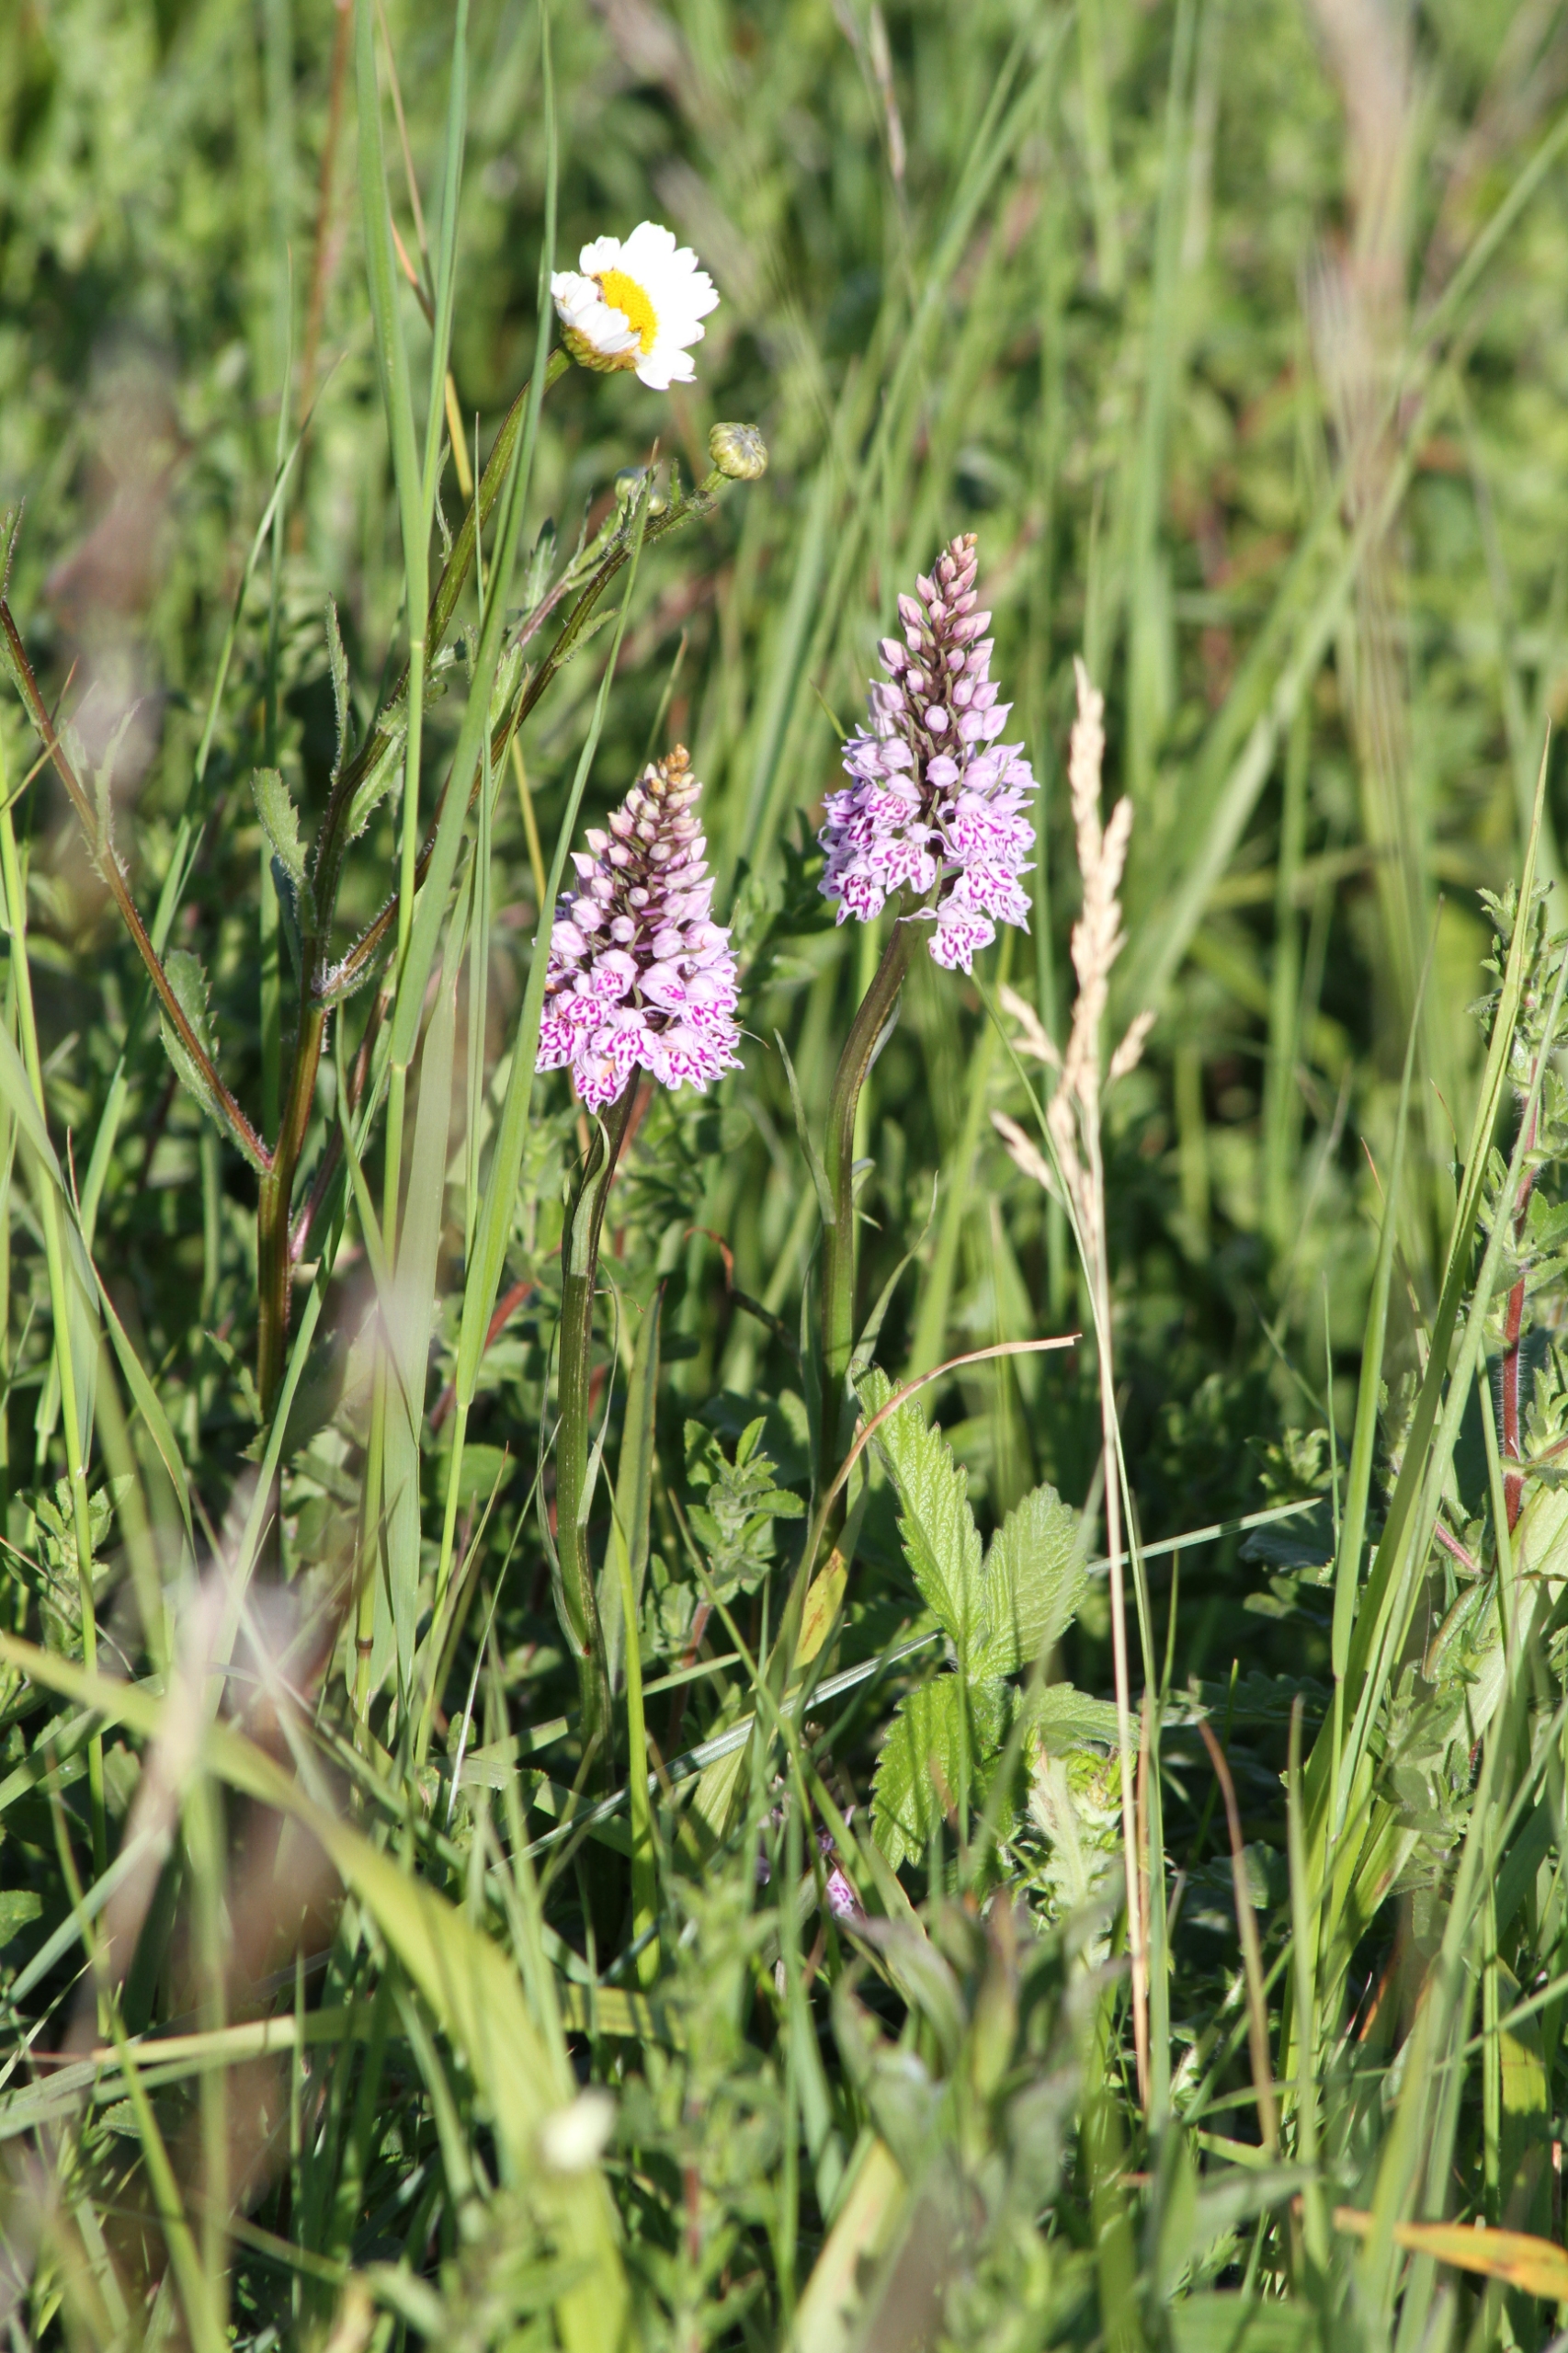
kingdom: Plantae
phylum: Tracheophyta
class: Liliopsida
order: Asparagales
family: Orchidaceae
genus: Dactylorhiza
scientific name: Dactylorhiza maculata
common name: Skov-gøgeurt
